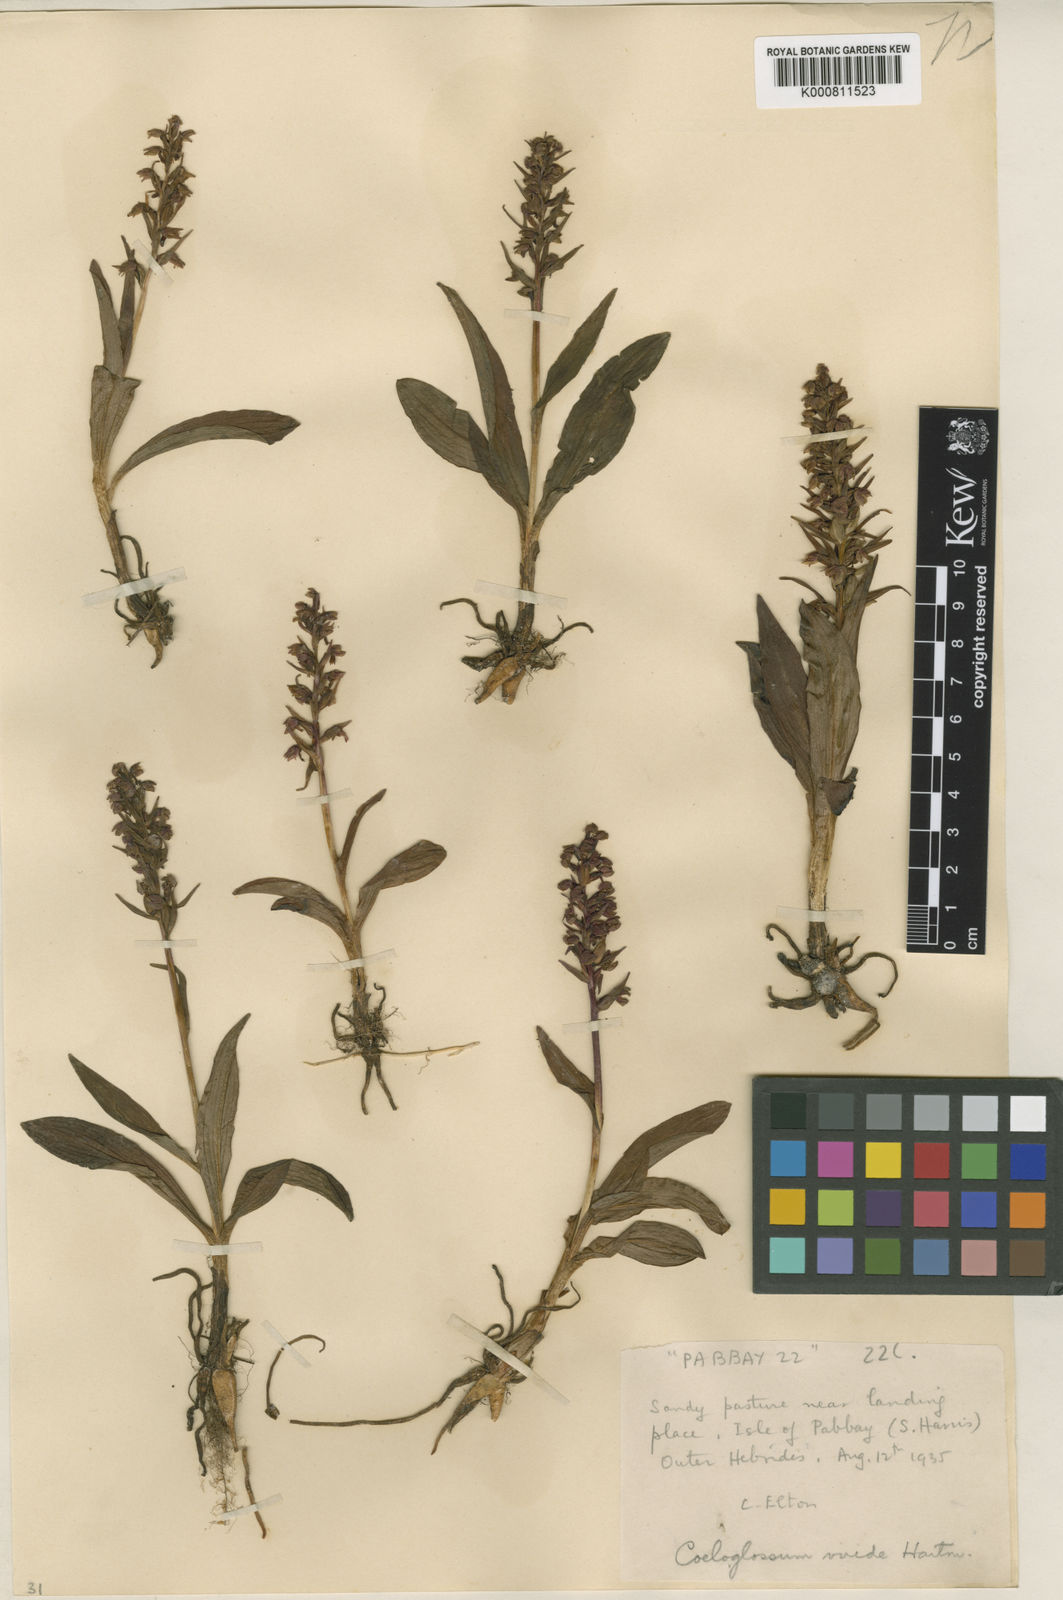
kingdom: Plantae
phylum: Tracheophyta
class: Liliopsida
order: Asparagales
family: Orchidaceae
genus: Dactylorhiza
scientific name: Dactylorhiza viridis
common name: Longbract frog orchid
